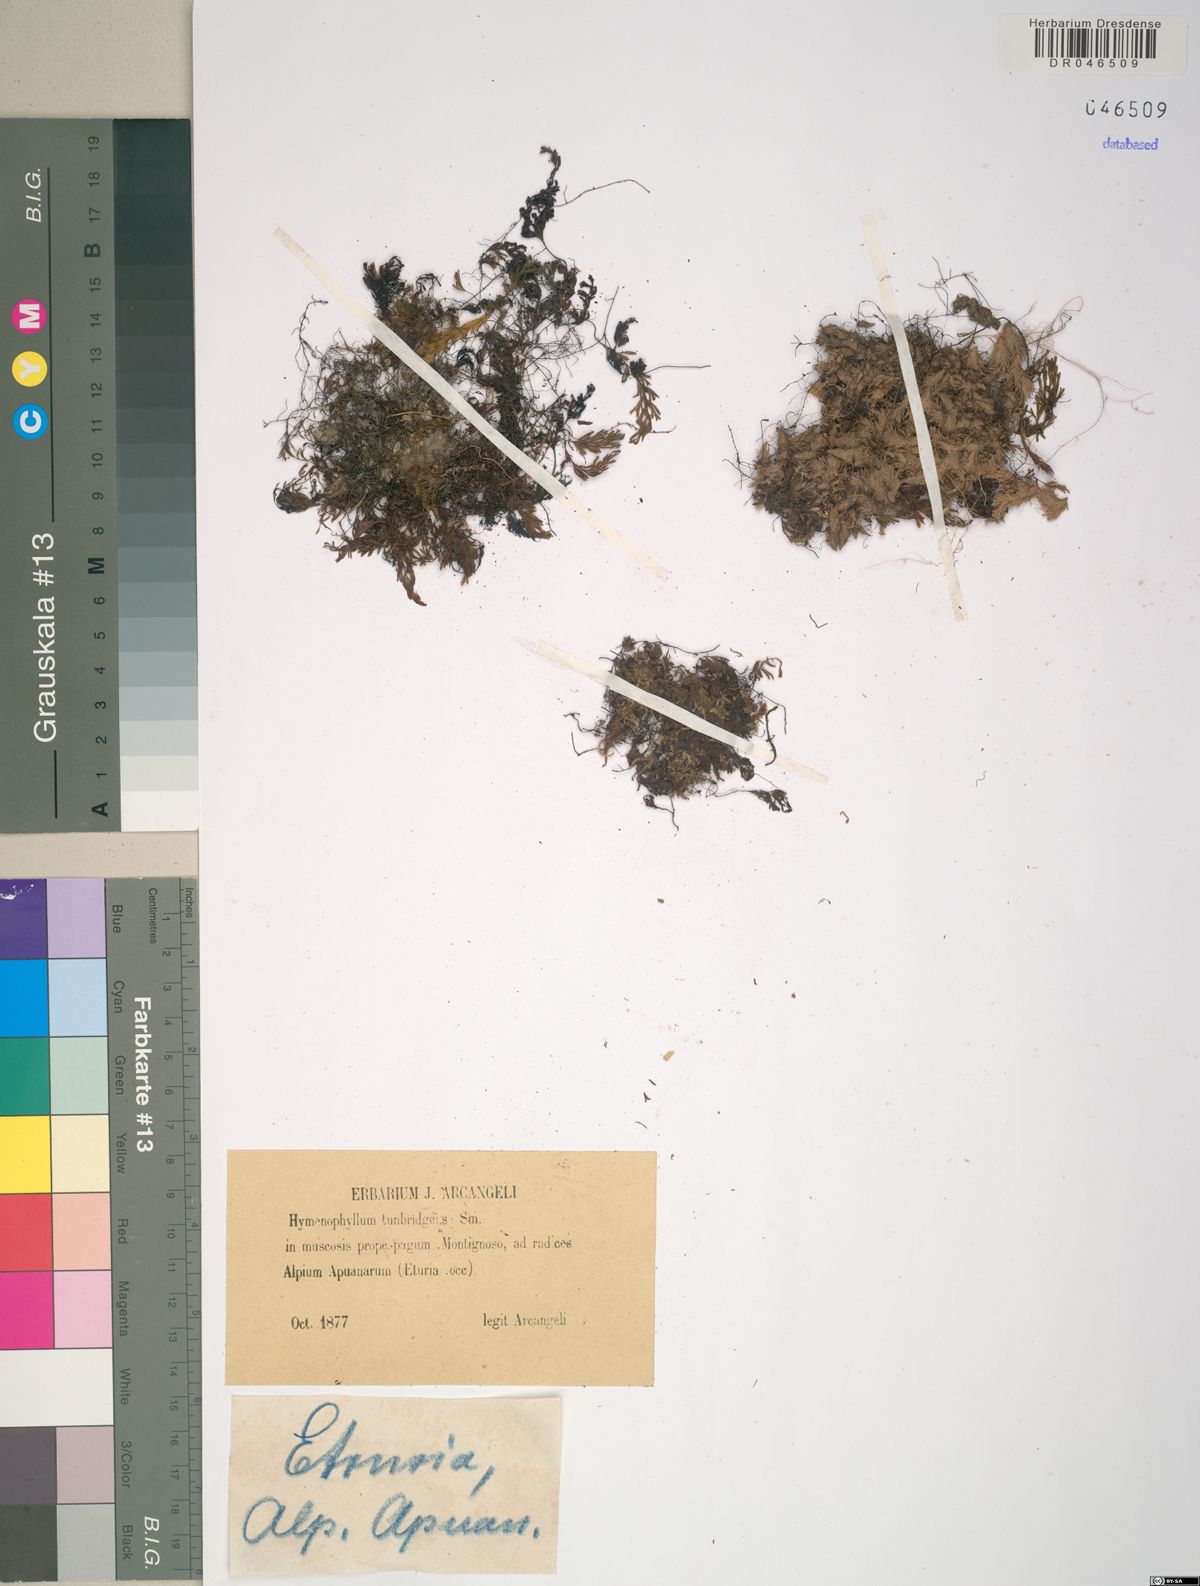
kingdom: Plantae
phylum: Tracheophyta
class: Polypodiopsida
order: Hymenophyllales
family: Hymenophyllaceae
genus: Hymenophyllum
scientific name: Hymenophyllum tunbrigense
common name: Tunbridge filmy fern
